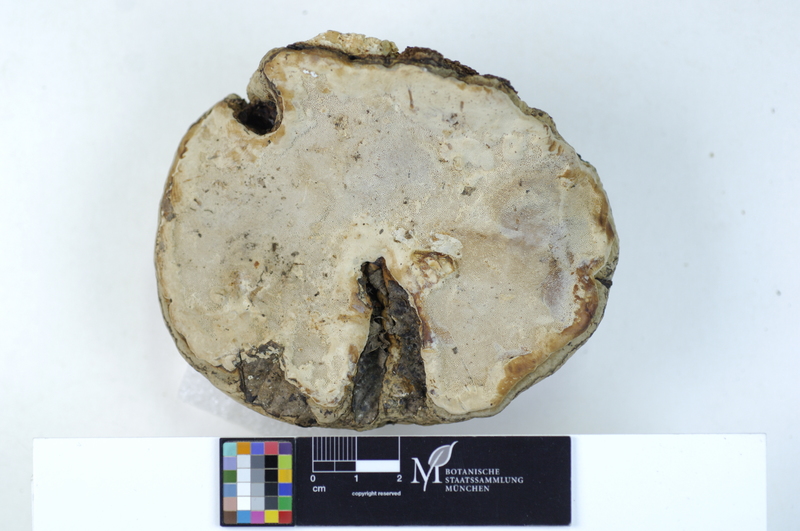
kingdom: Fungi
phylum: Basidiomycota
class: Agaricomycetes
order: Polyporales
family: Polyporaceae
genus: Vanderbylia
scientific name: Vanderbylia fraxinea
